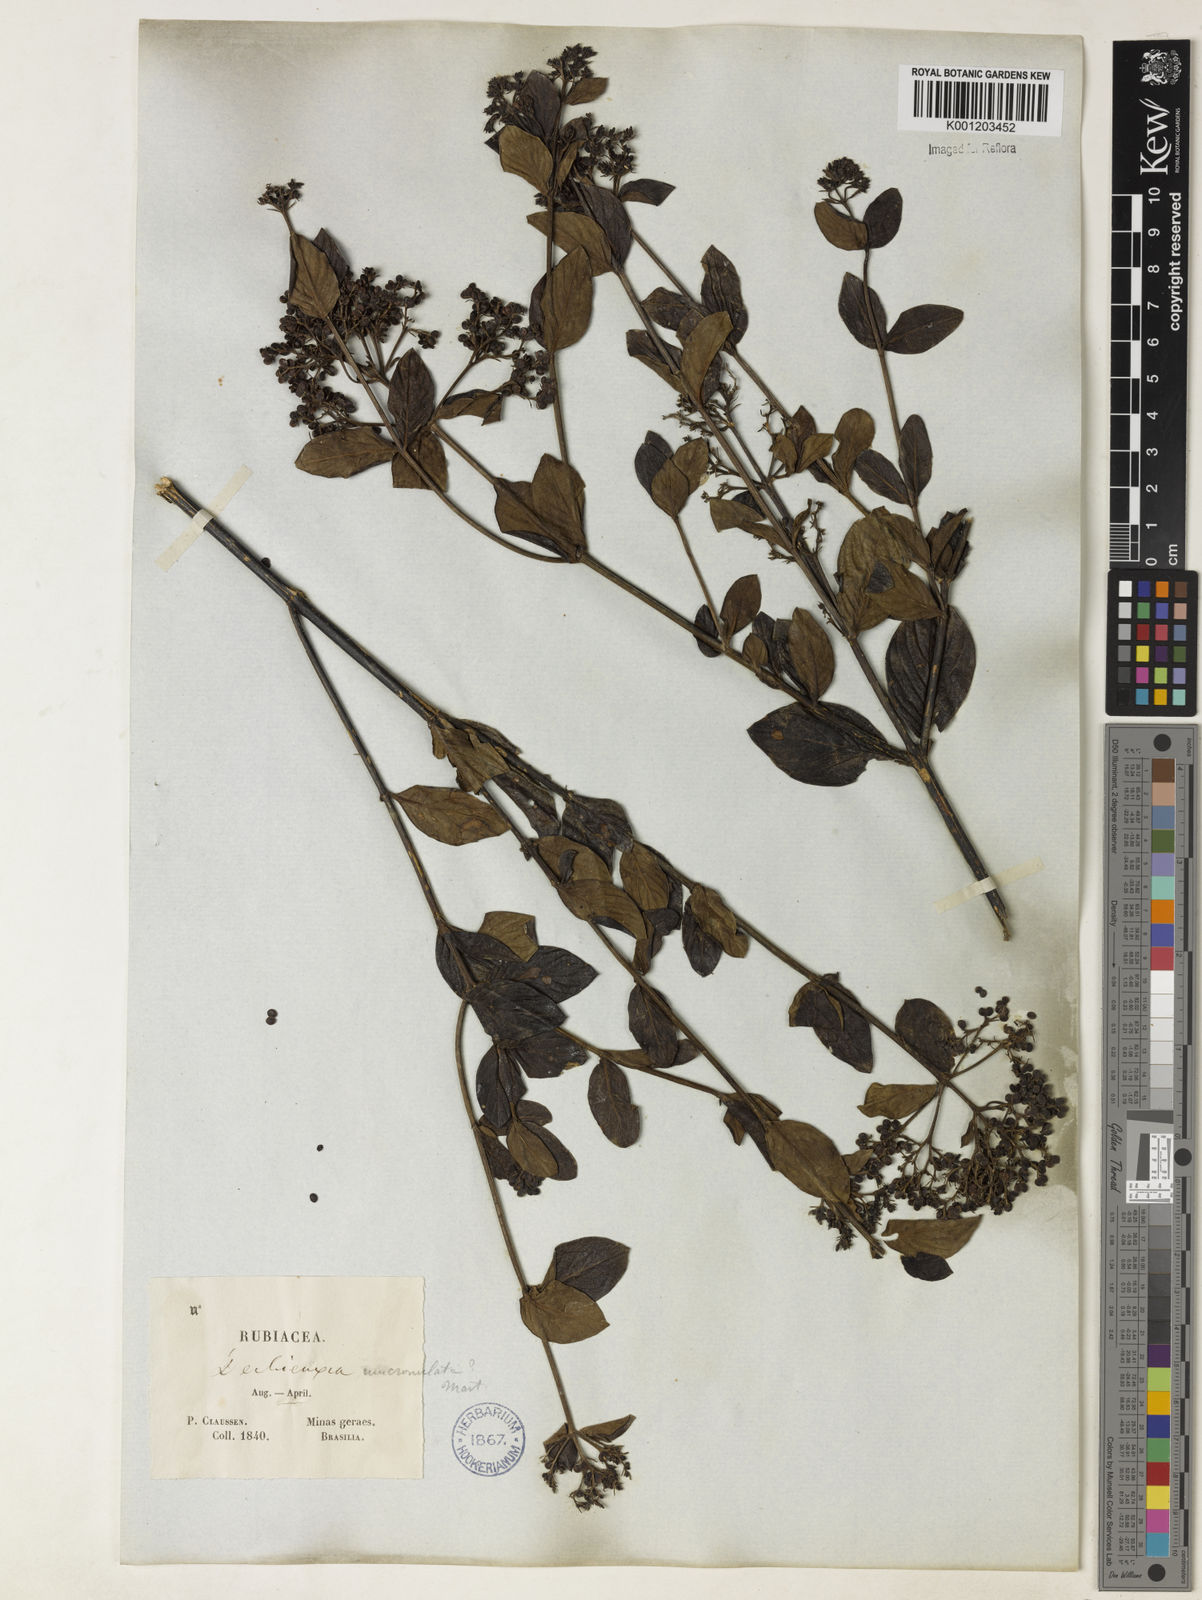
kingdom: Plantae
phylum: Tracheophyta
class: Magnoliopsida
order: Gentianales
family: Rubiaceae
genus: Declieuxia
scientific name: Declieuxia fruticosa
